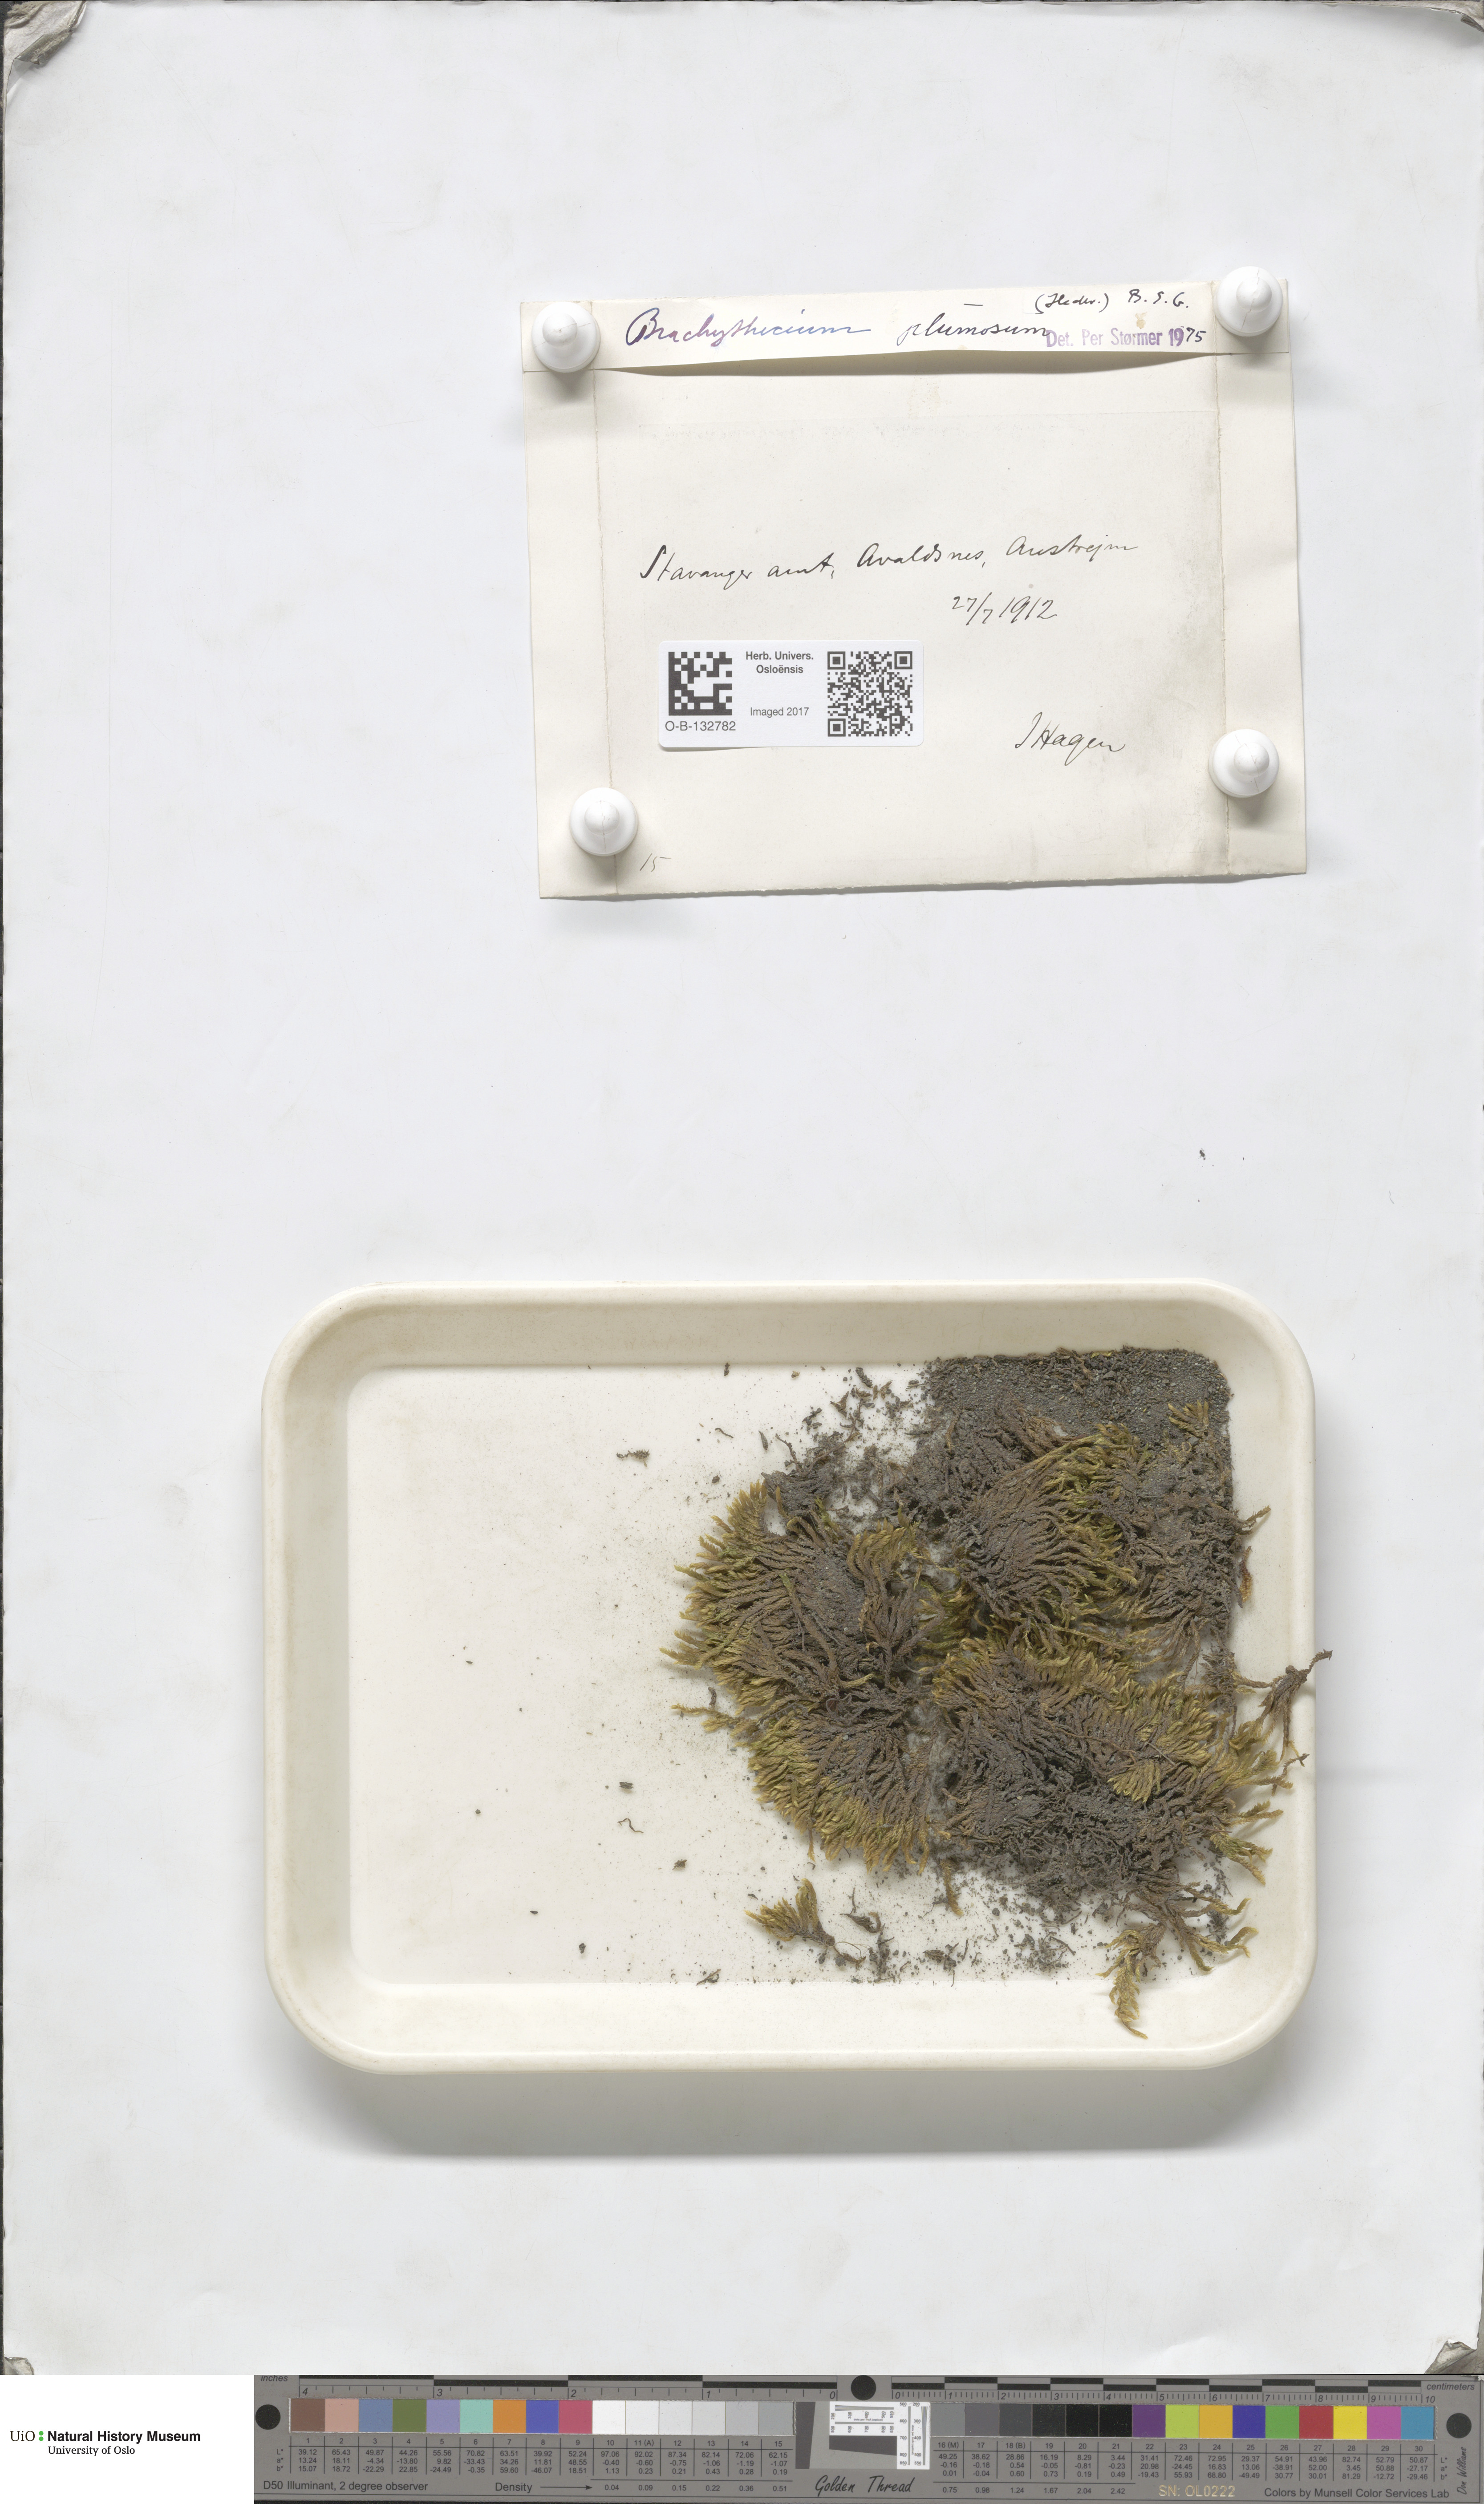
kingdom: Plantae
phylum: Bryophyta
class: Bryopsida
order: Hypnales
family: Brachytheciaceae
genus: Sciuro-hypnum
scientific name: Sciuro-hypnum plumosum
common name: Rusty feather-moss
